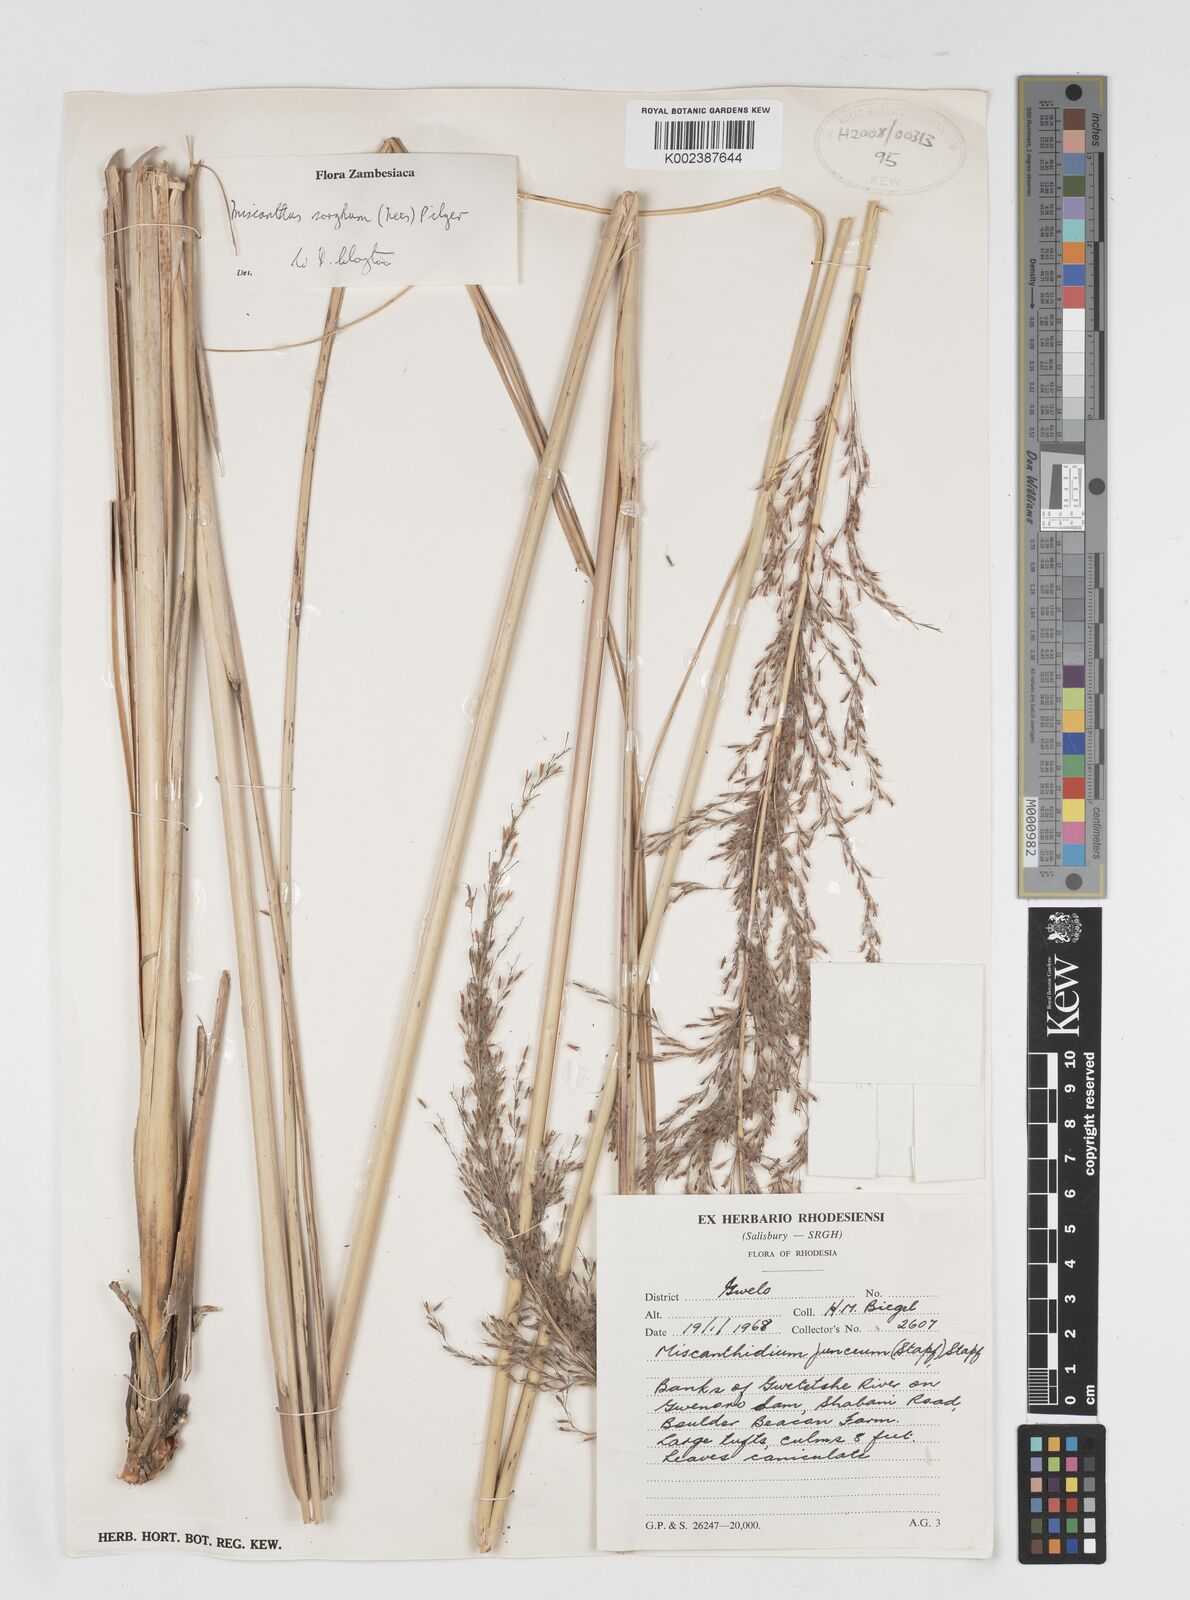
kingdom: Plantae
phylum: Tracheophyta
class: Liliopsida
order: Poales
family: Poaceae
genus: Miscanthidium
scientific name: Miscanthidium junceum
